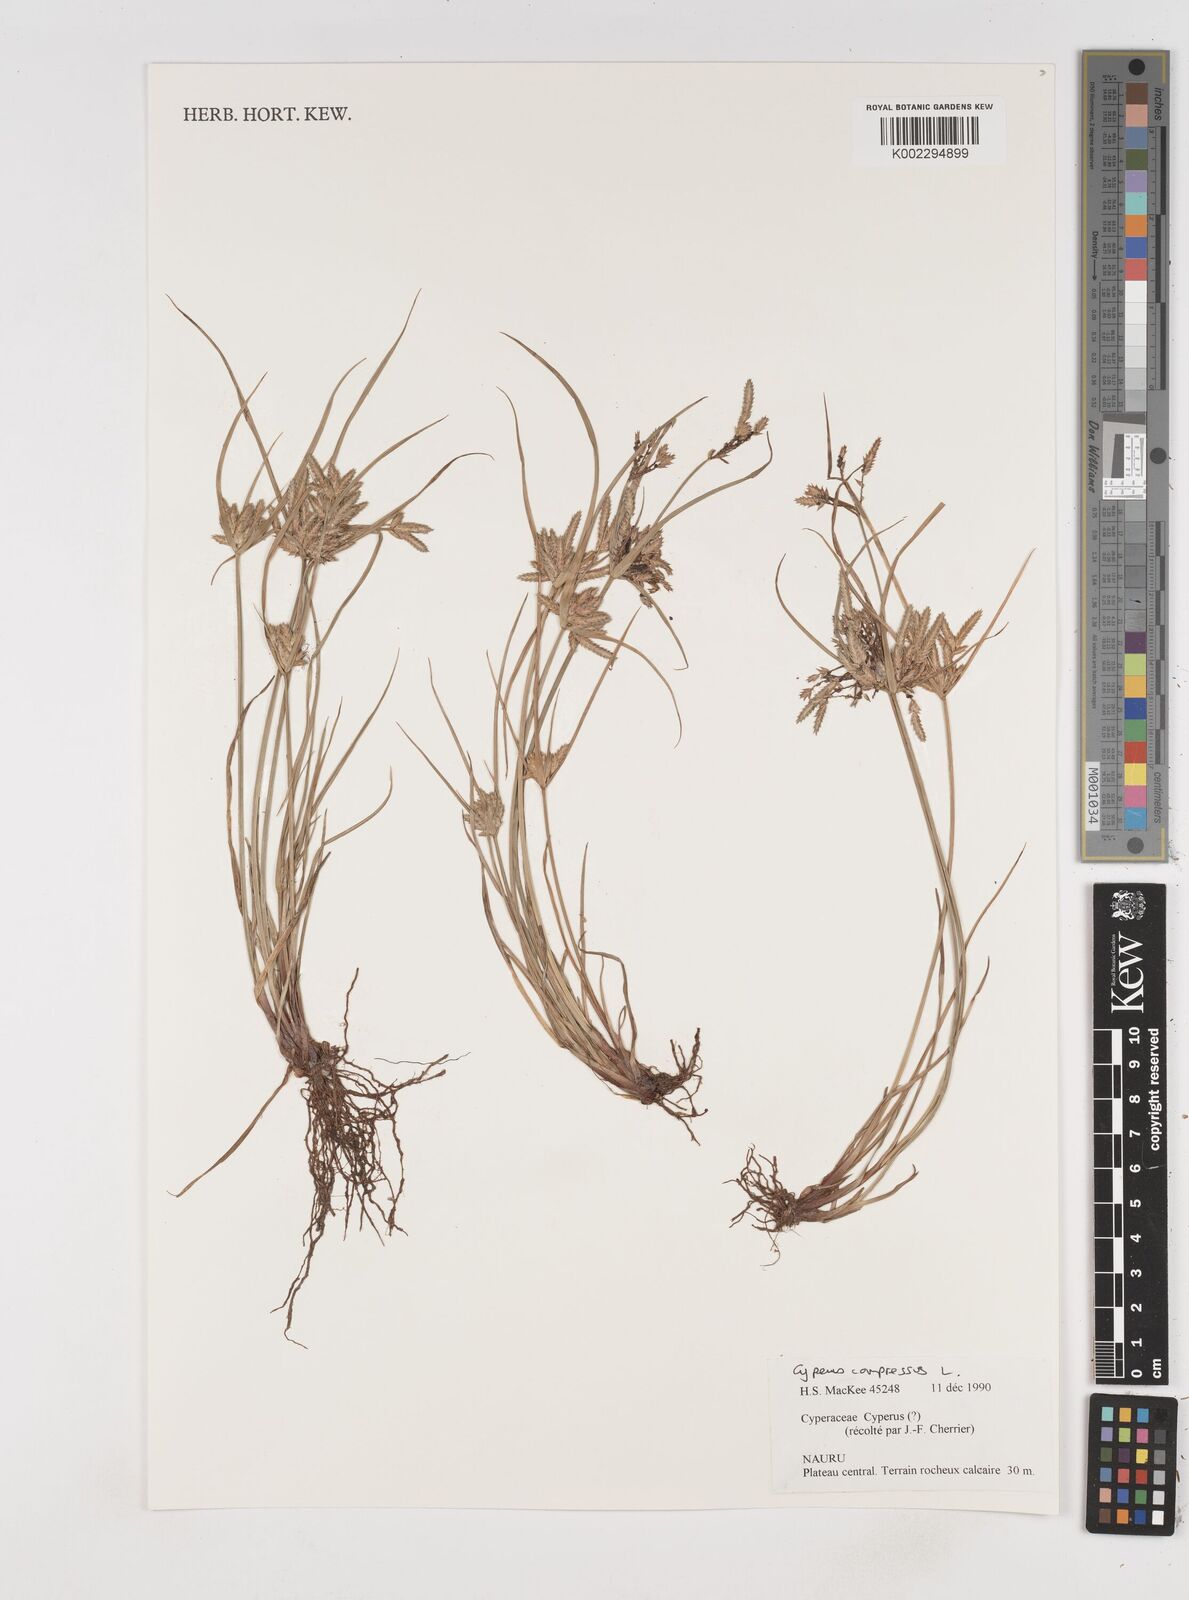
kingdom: Plantae
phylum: Tracheophyta
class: Liliopsida
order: Poales
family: Cyperaceae
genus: Cyperus
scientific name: Cyperus compressus
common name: Poorland flatsedge
